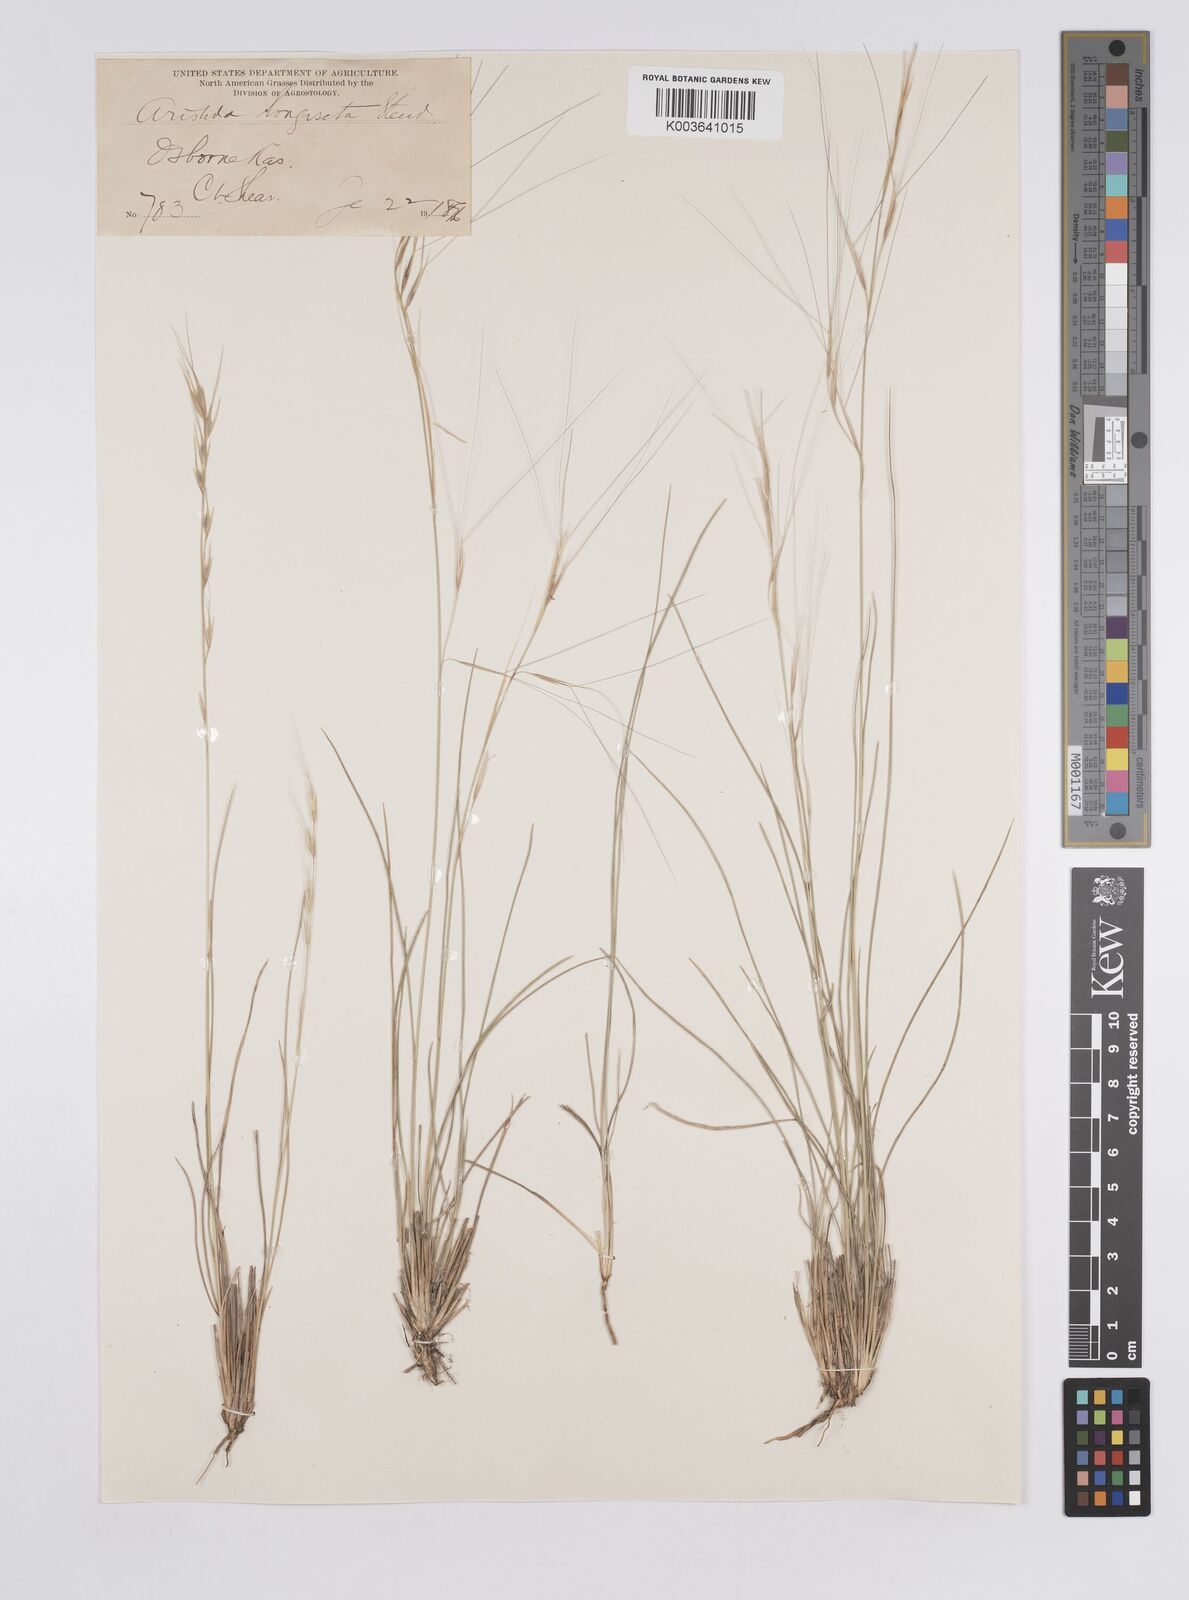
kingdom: Plantae
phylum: Tracheophyta
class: Liliopsida
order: Poales
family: Poaceae
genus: Aristida
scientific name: Aristida purpurea
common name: Purple threeawn
